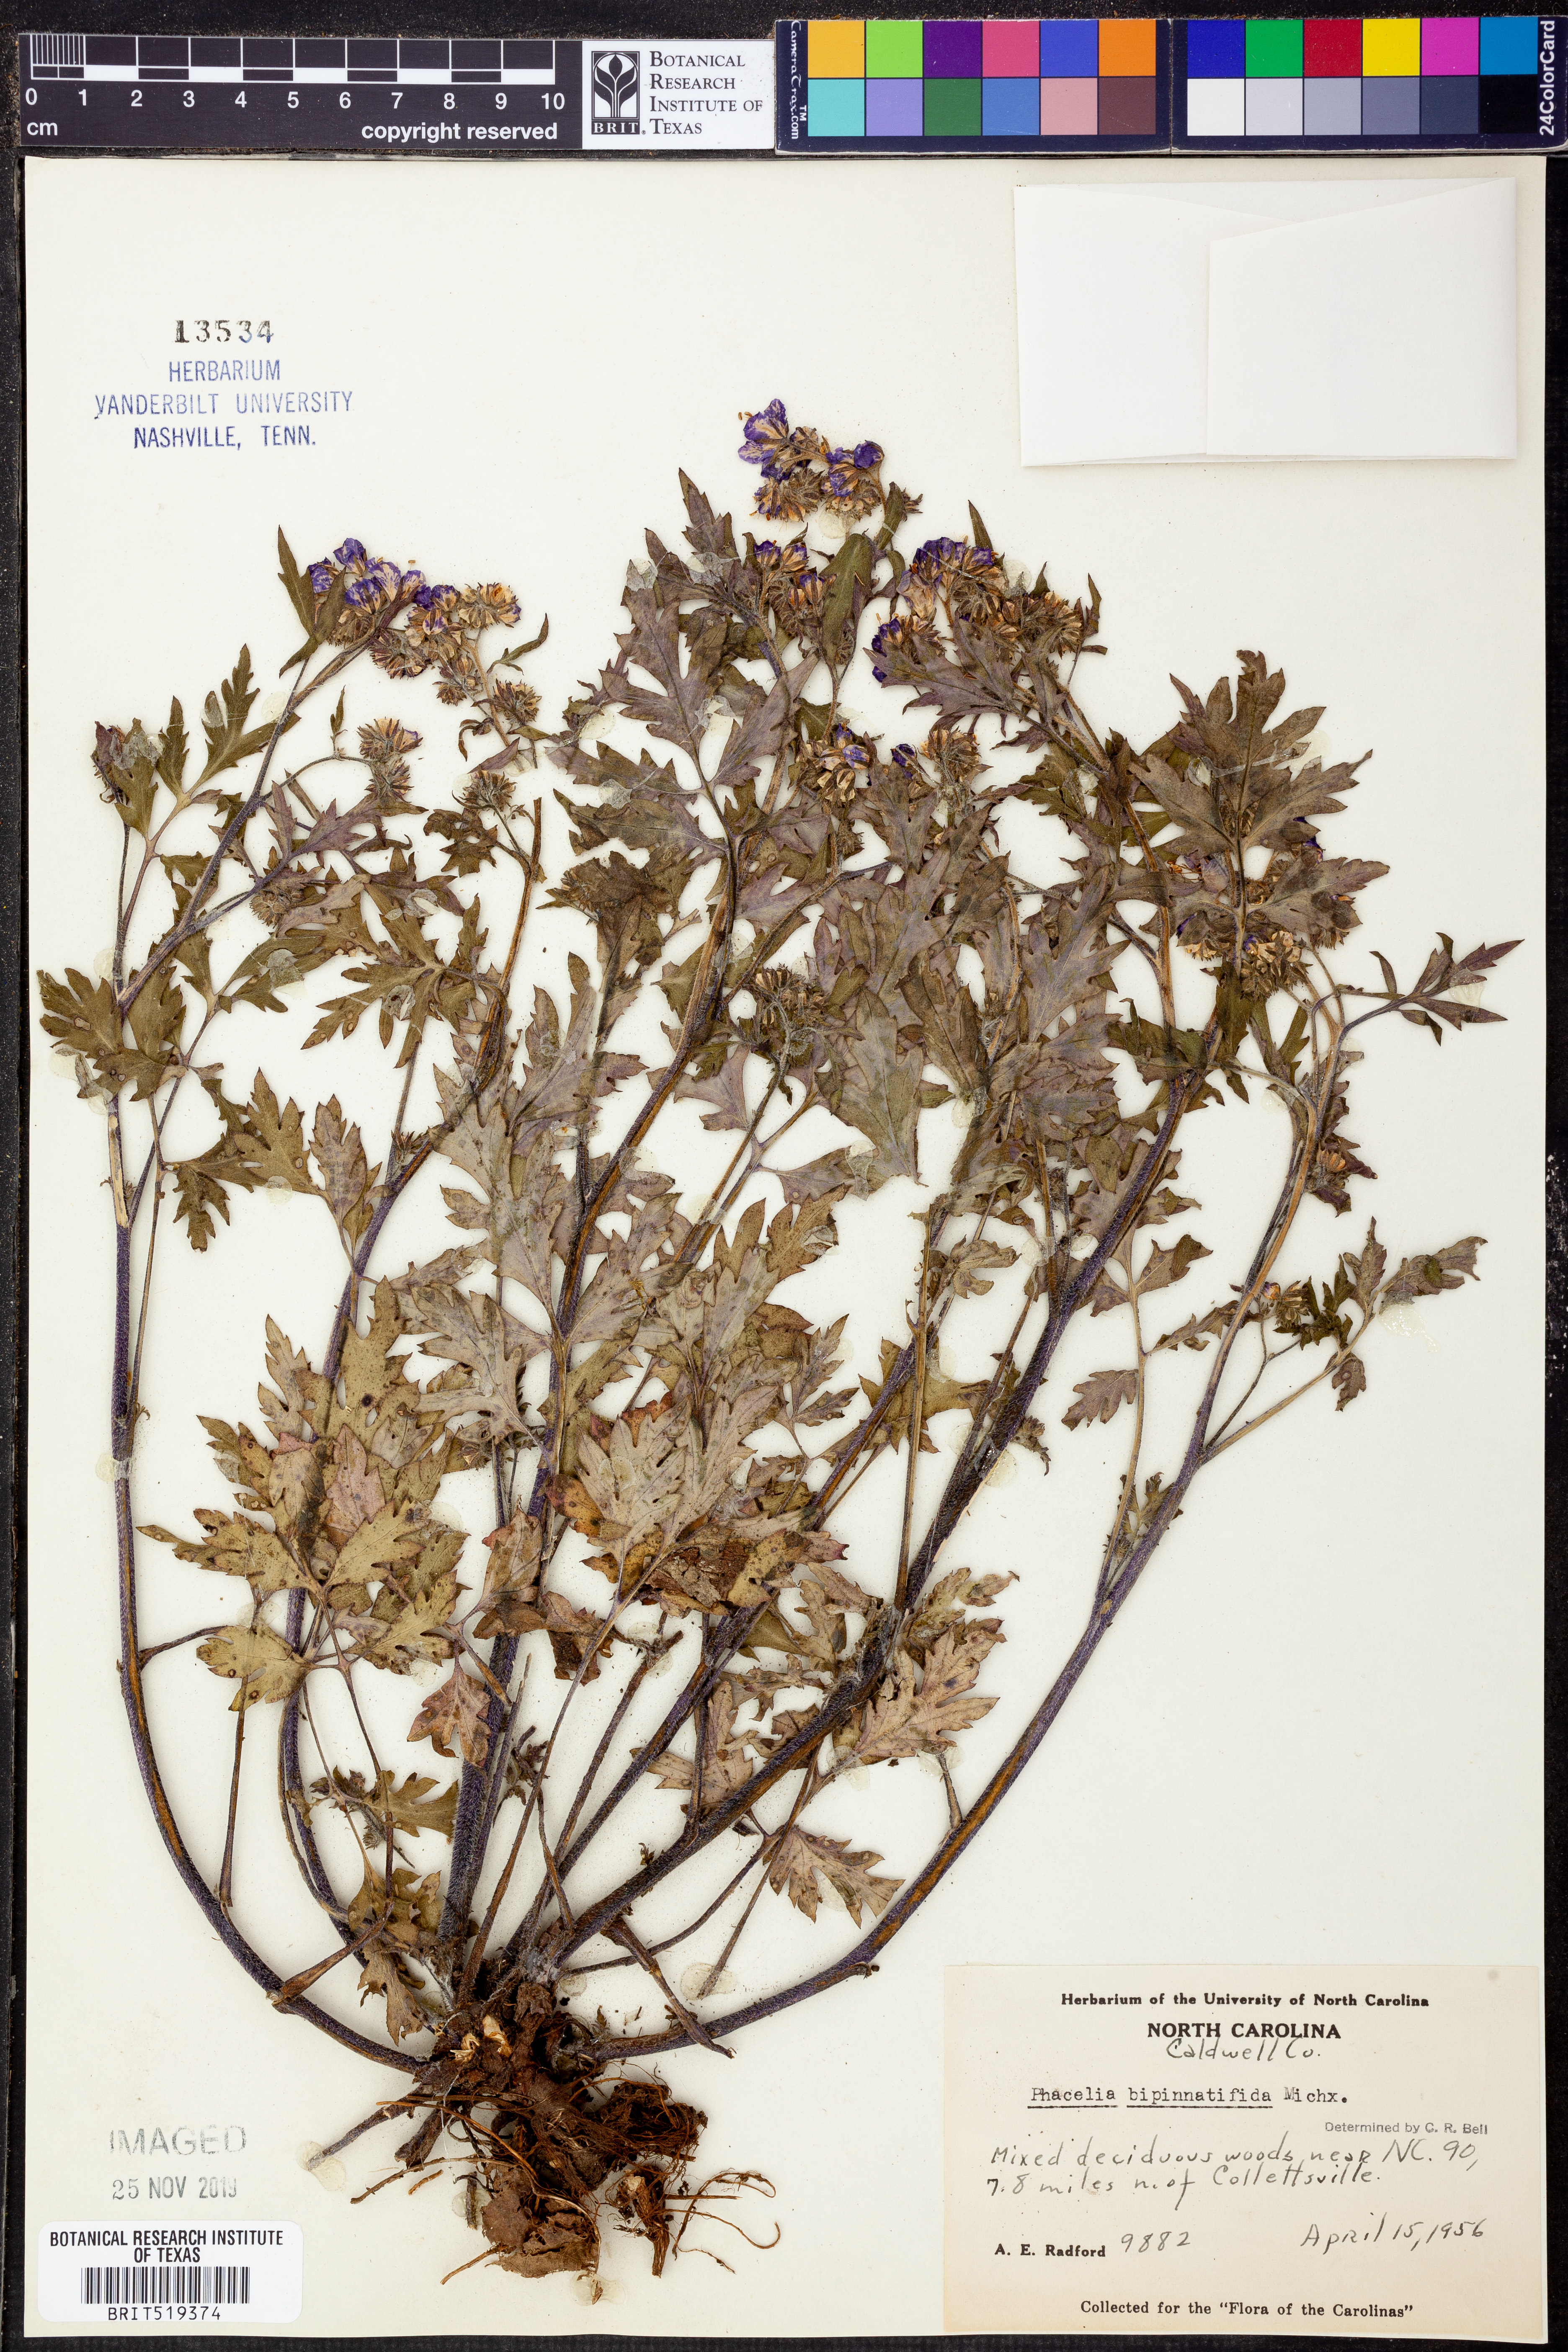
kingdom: Plantae
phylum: Tracheophyta
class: Magnoliopsida
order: Boraginales
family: Hydrophyllaceae
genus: Phacelia
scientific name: Phacelia bipinnatifida
